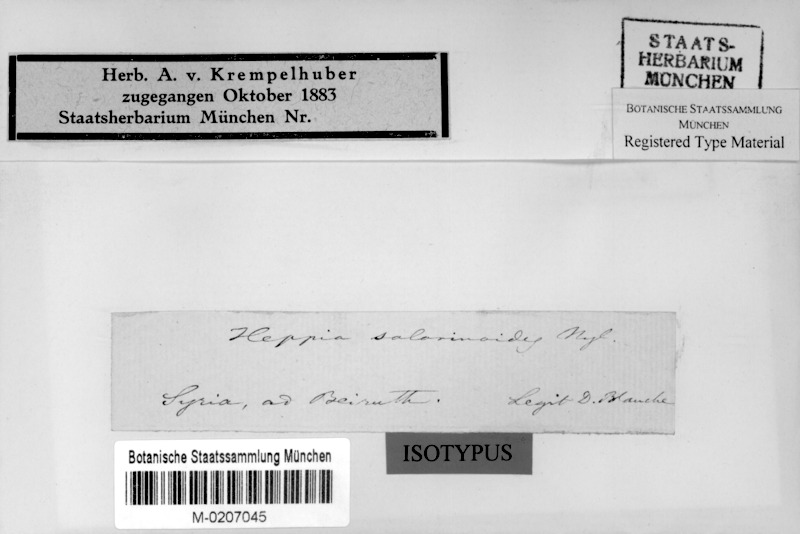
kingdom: Fungi
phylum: Ascomycota
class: Lichinomycetes
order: Lichinales
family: Lichinaceae
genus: Heppia
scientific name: Heppia solorinoides
